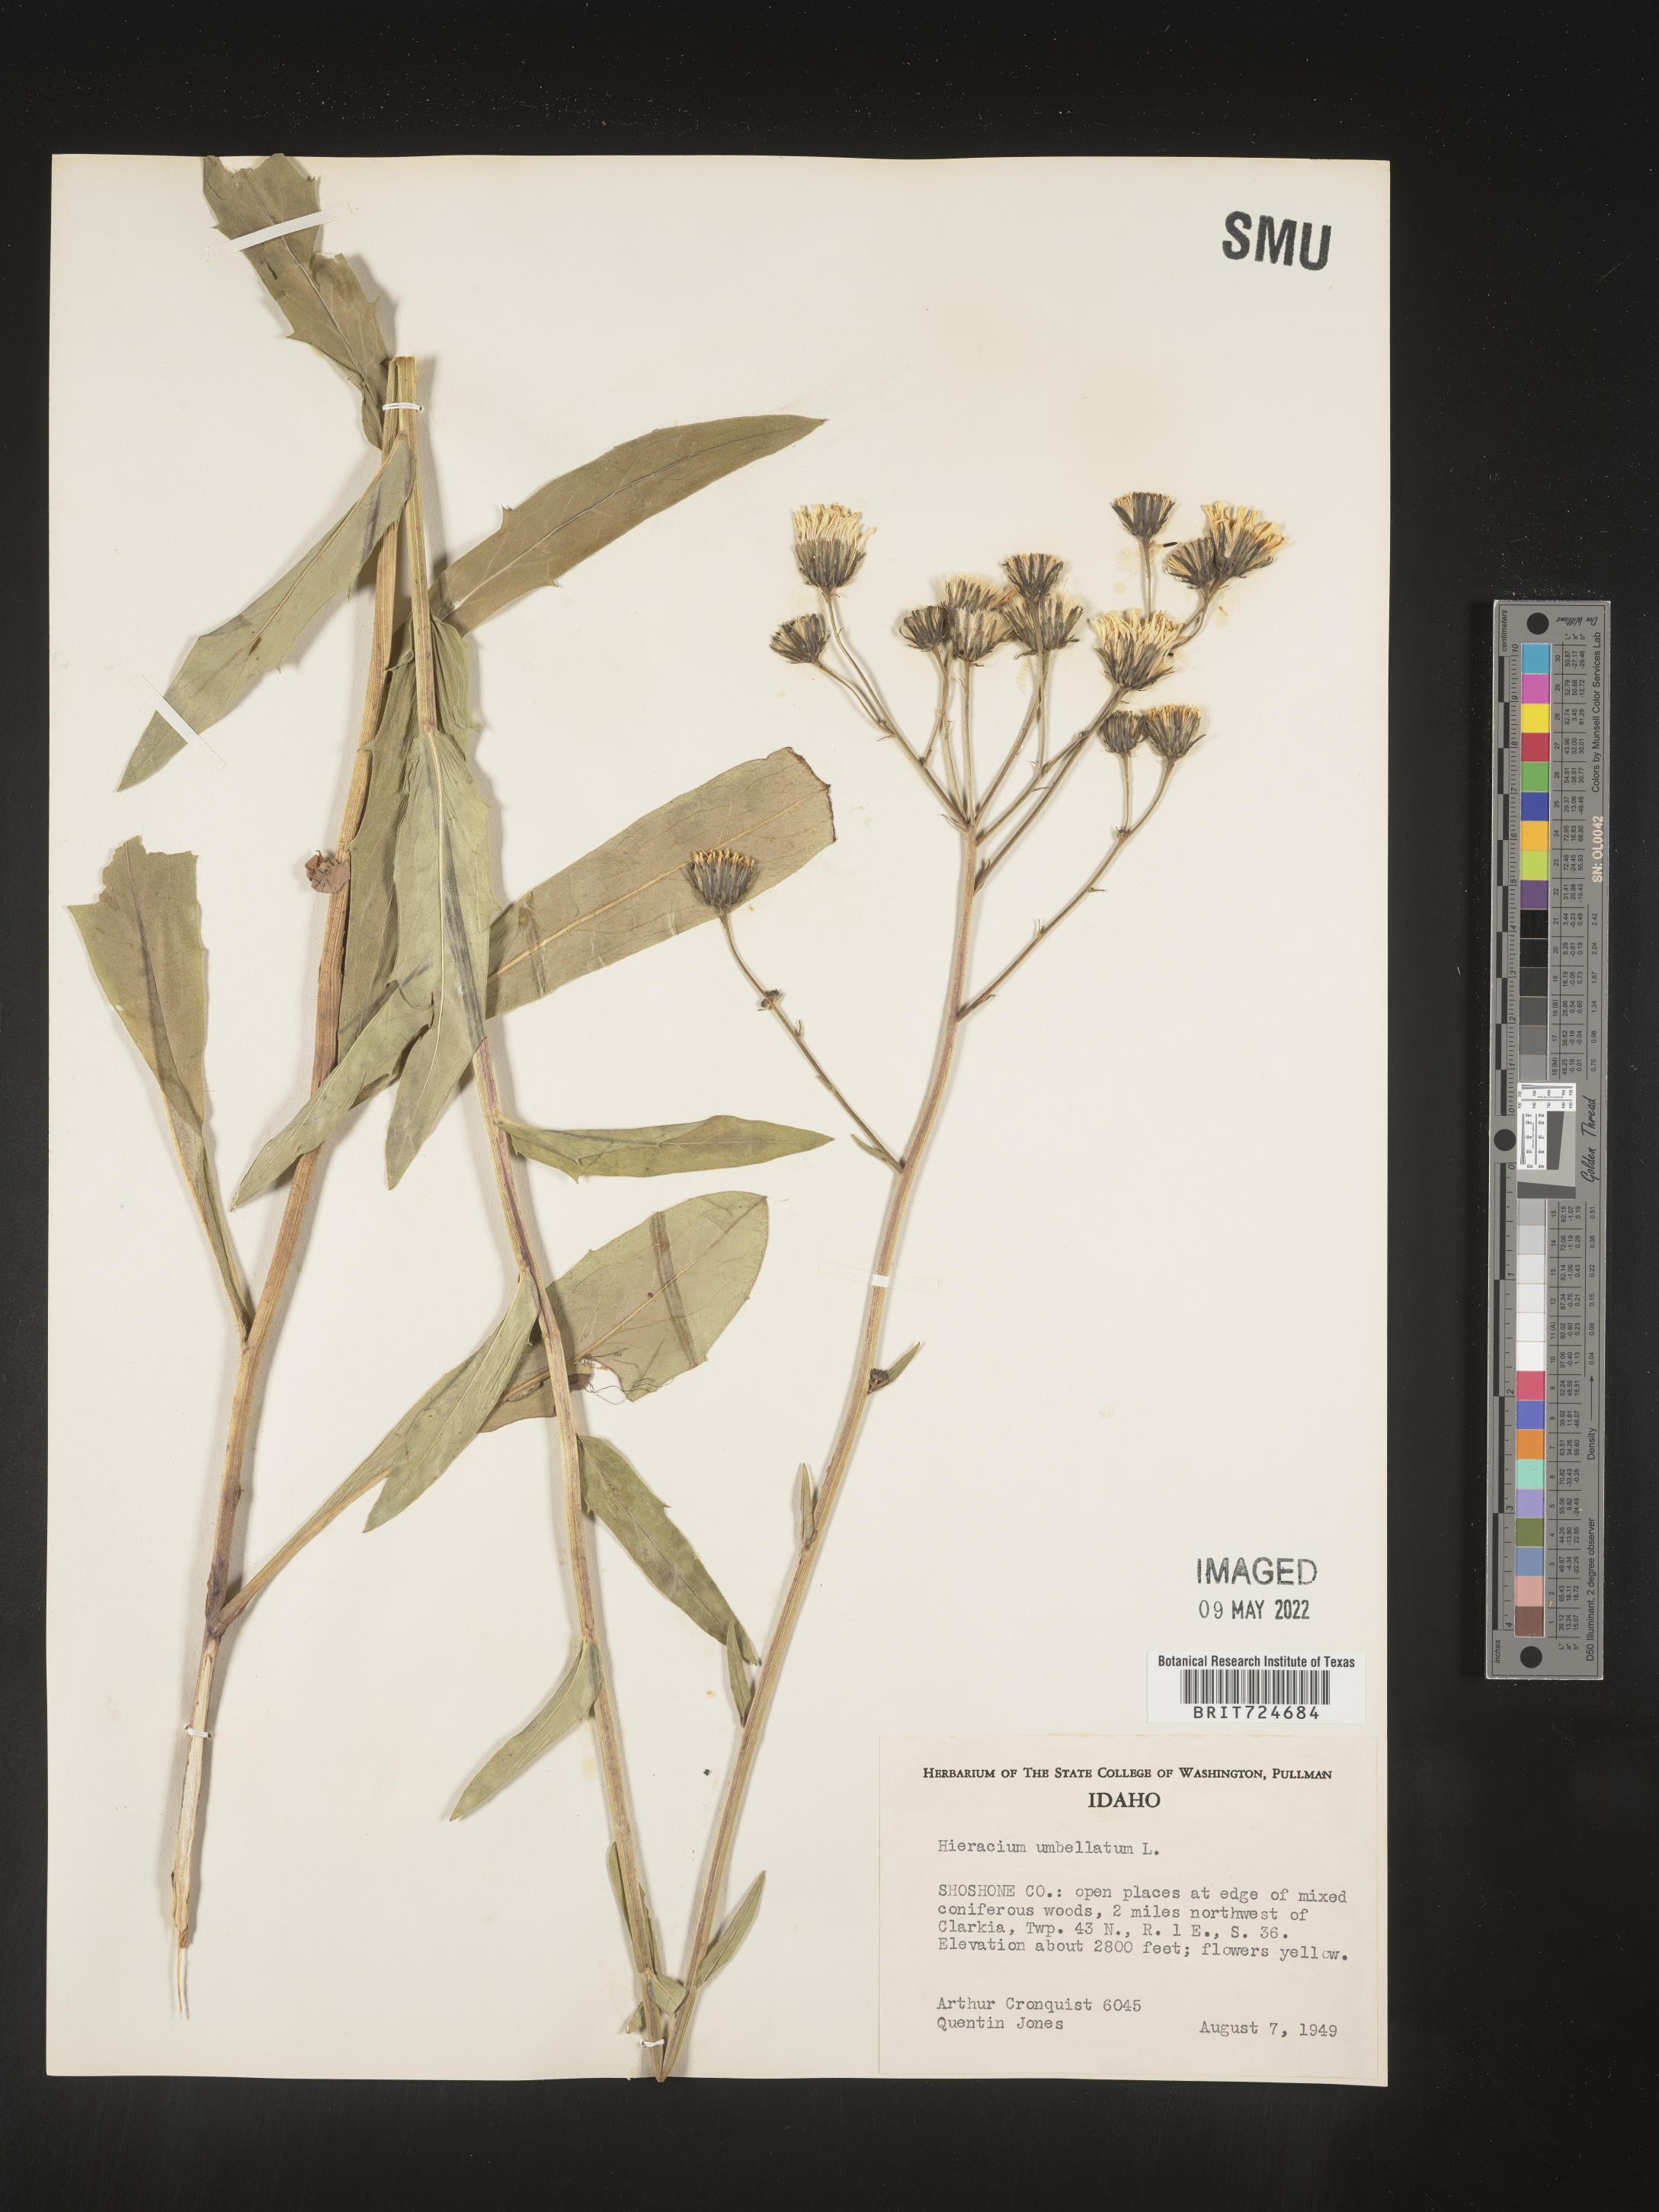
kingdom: Plantae
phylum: Tracheophyta
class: Magnoliopsida
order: Asterales
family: Asteraceae
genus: Hieracium
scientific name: Hieracium
